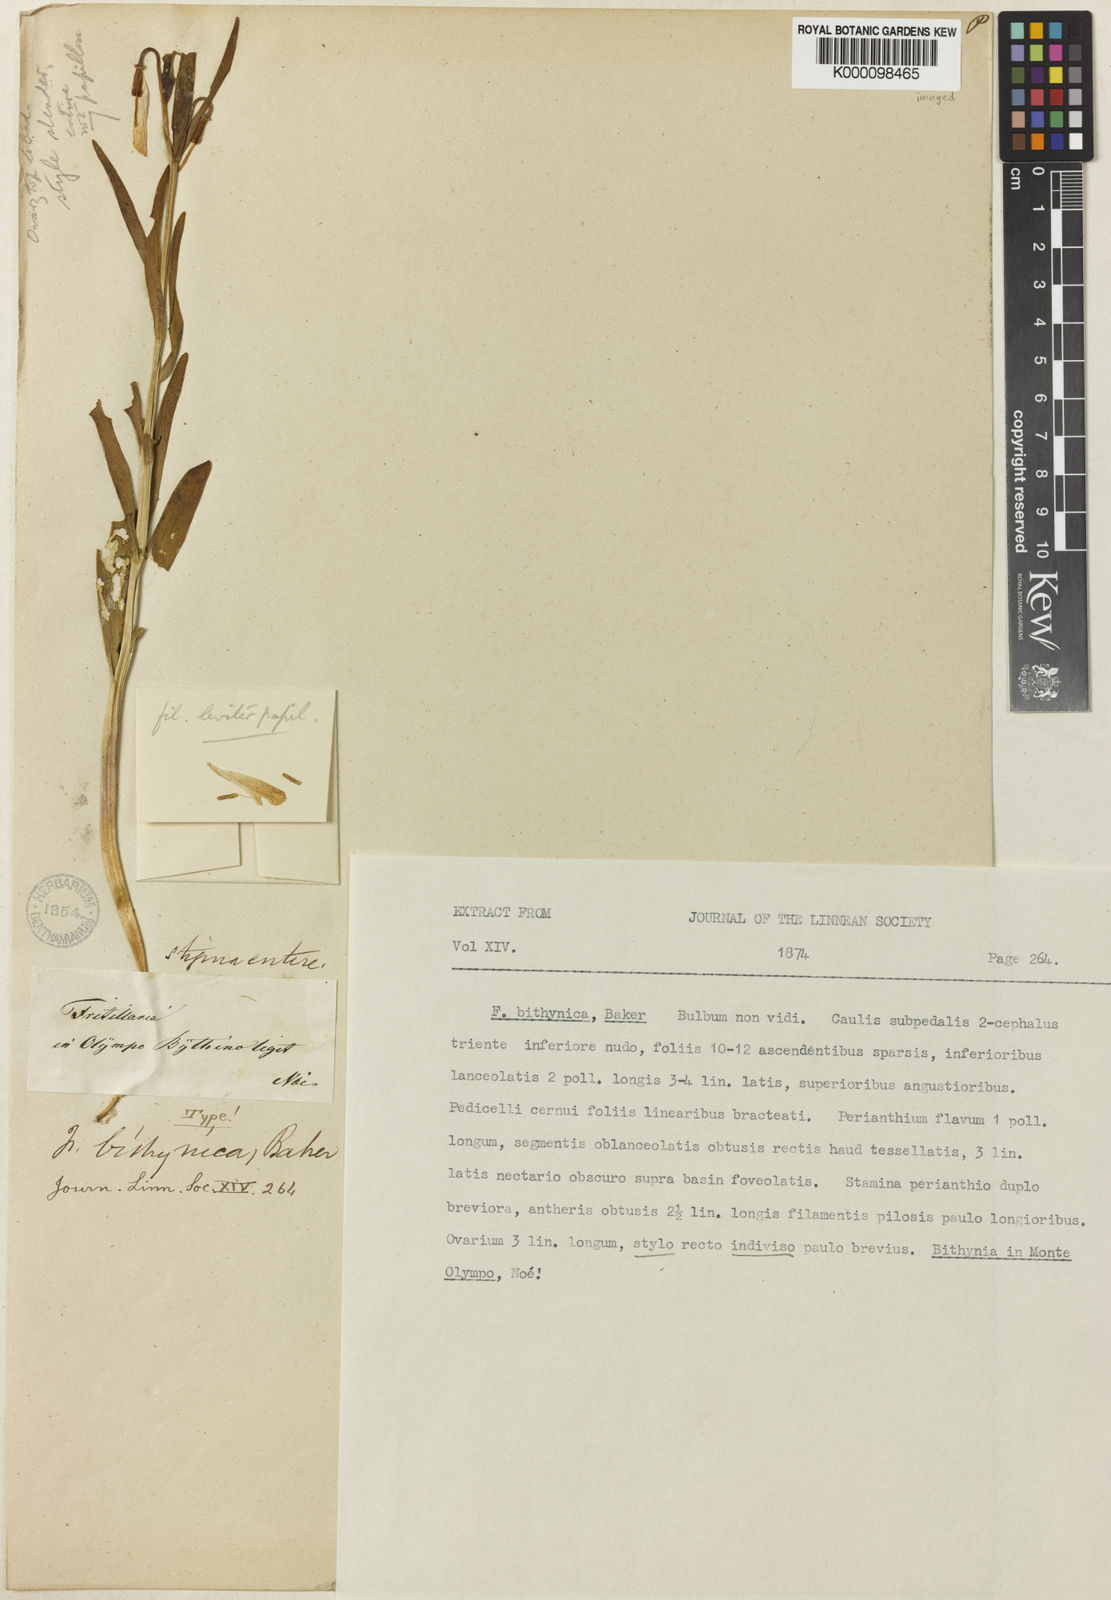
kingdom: Plantae
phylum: Tracheophyta
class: Liliopsida
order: Liliales
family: Liliaceae
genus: Fritillaria
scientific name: Fritillaria bithynica
